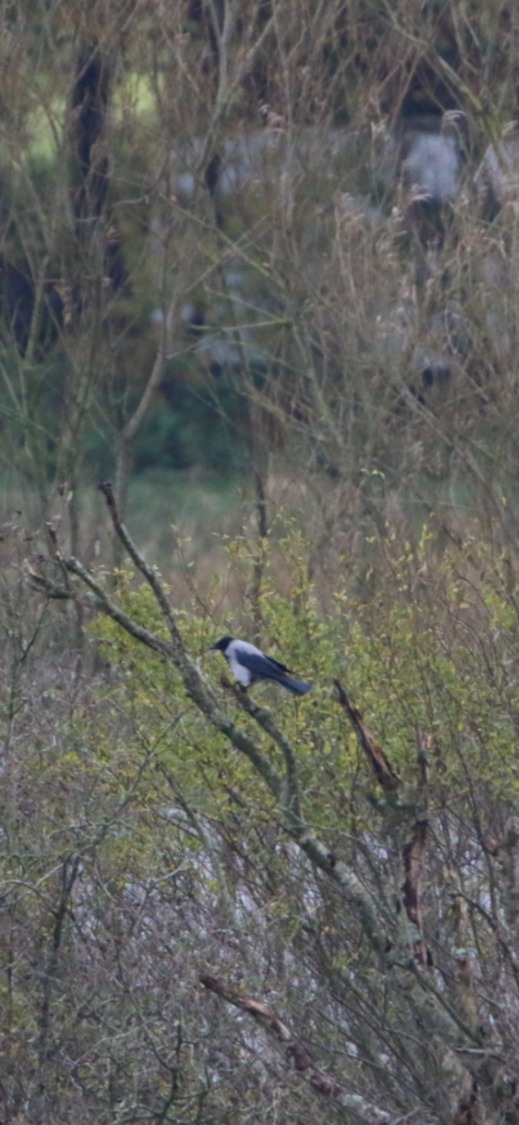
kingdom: Animalia
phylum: Chordata
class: Aves
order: Passeriformes
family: Corvidae
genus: Corvus
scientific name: Corvus cornix
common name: Gråkrage
